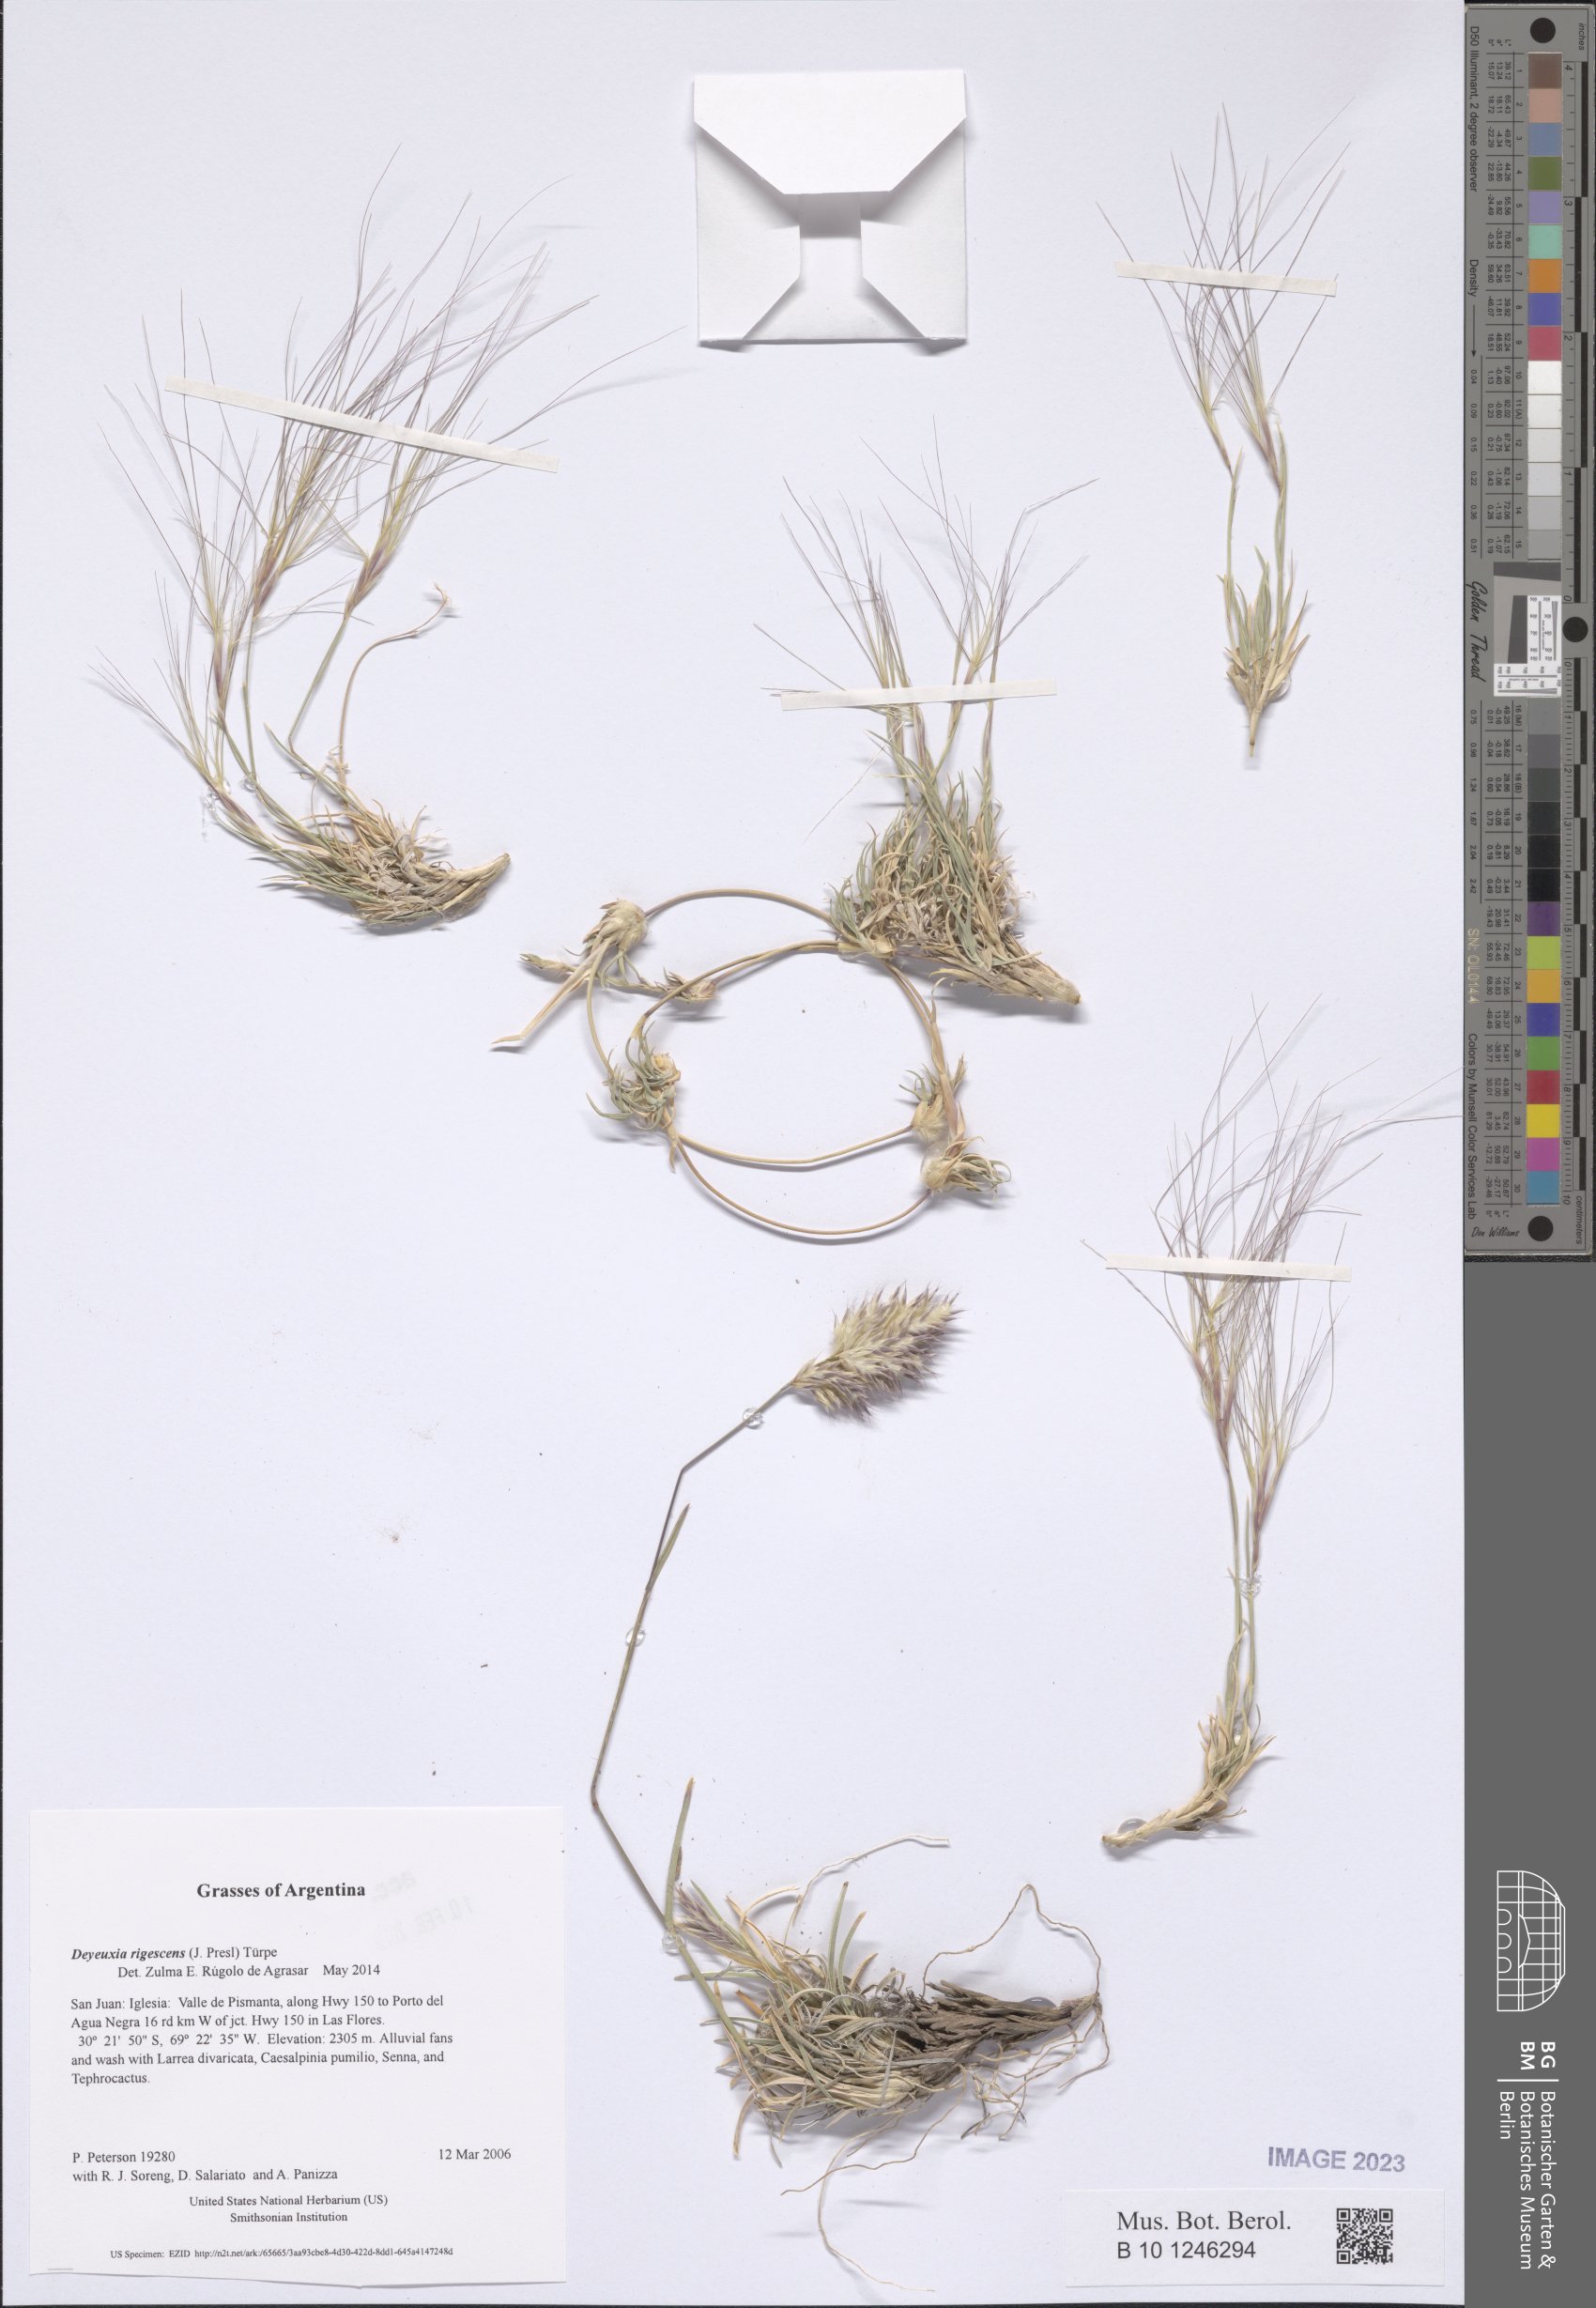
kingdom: Plantae
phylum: Tracheophyta
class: Liliopsida
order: Poales
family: Poaceae
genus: Cinnagrostis
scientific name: Cinnagrostis rigescens
